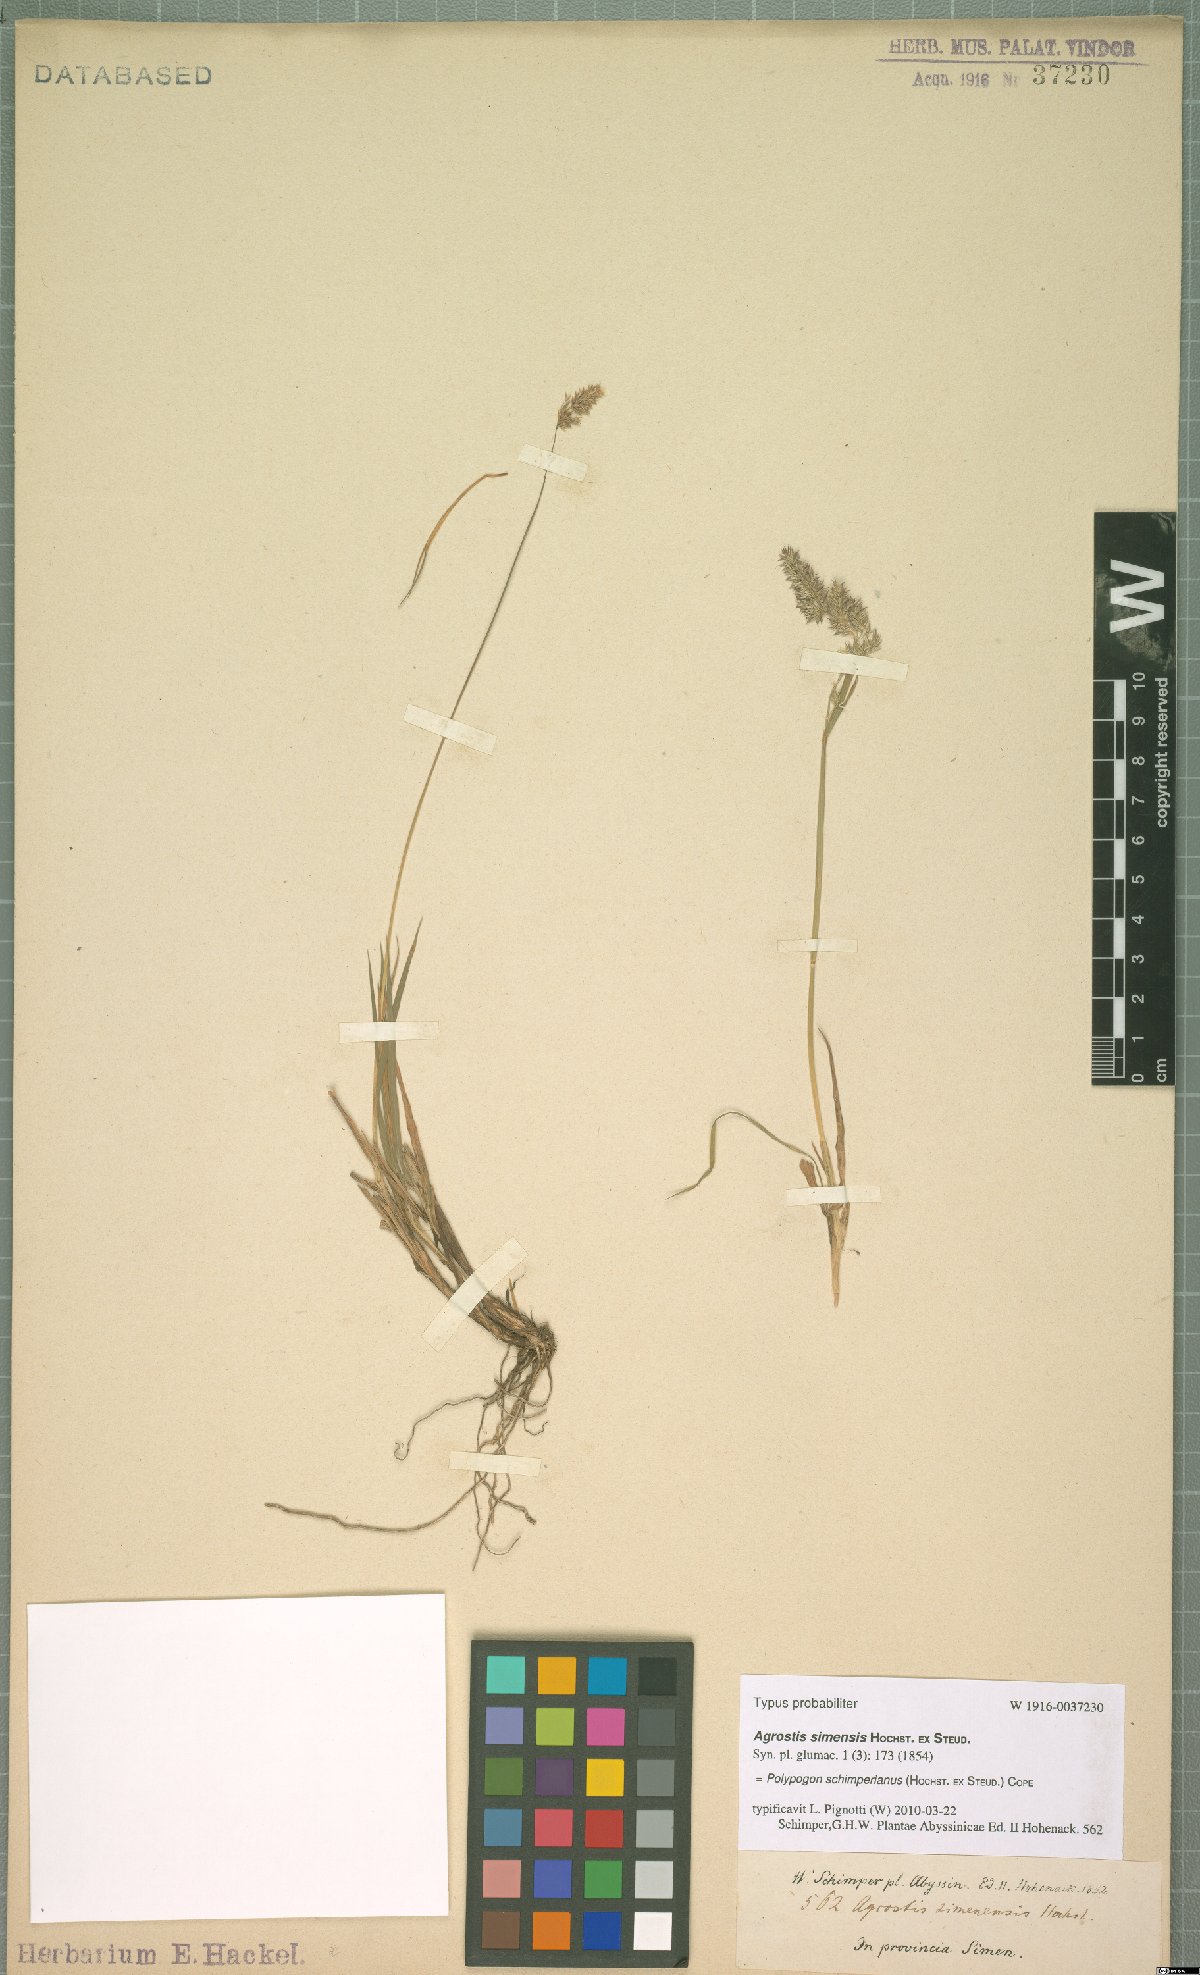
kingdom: Plantae
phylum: Tracheophyta
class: Liliopsida
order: Poales
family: Poaceae
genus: Polypogon
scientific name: Polypogon schimperianus
